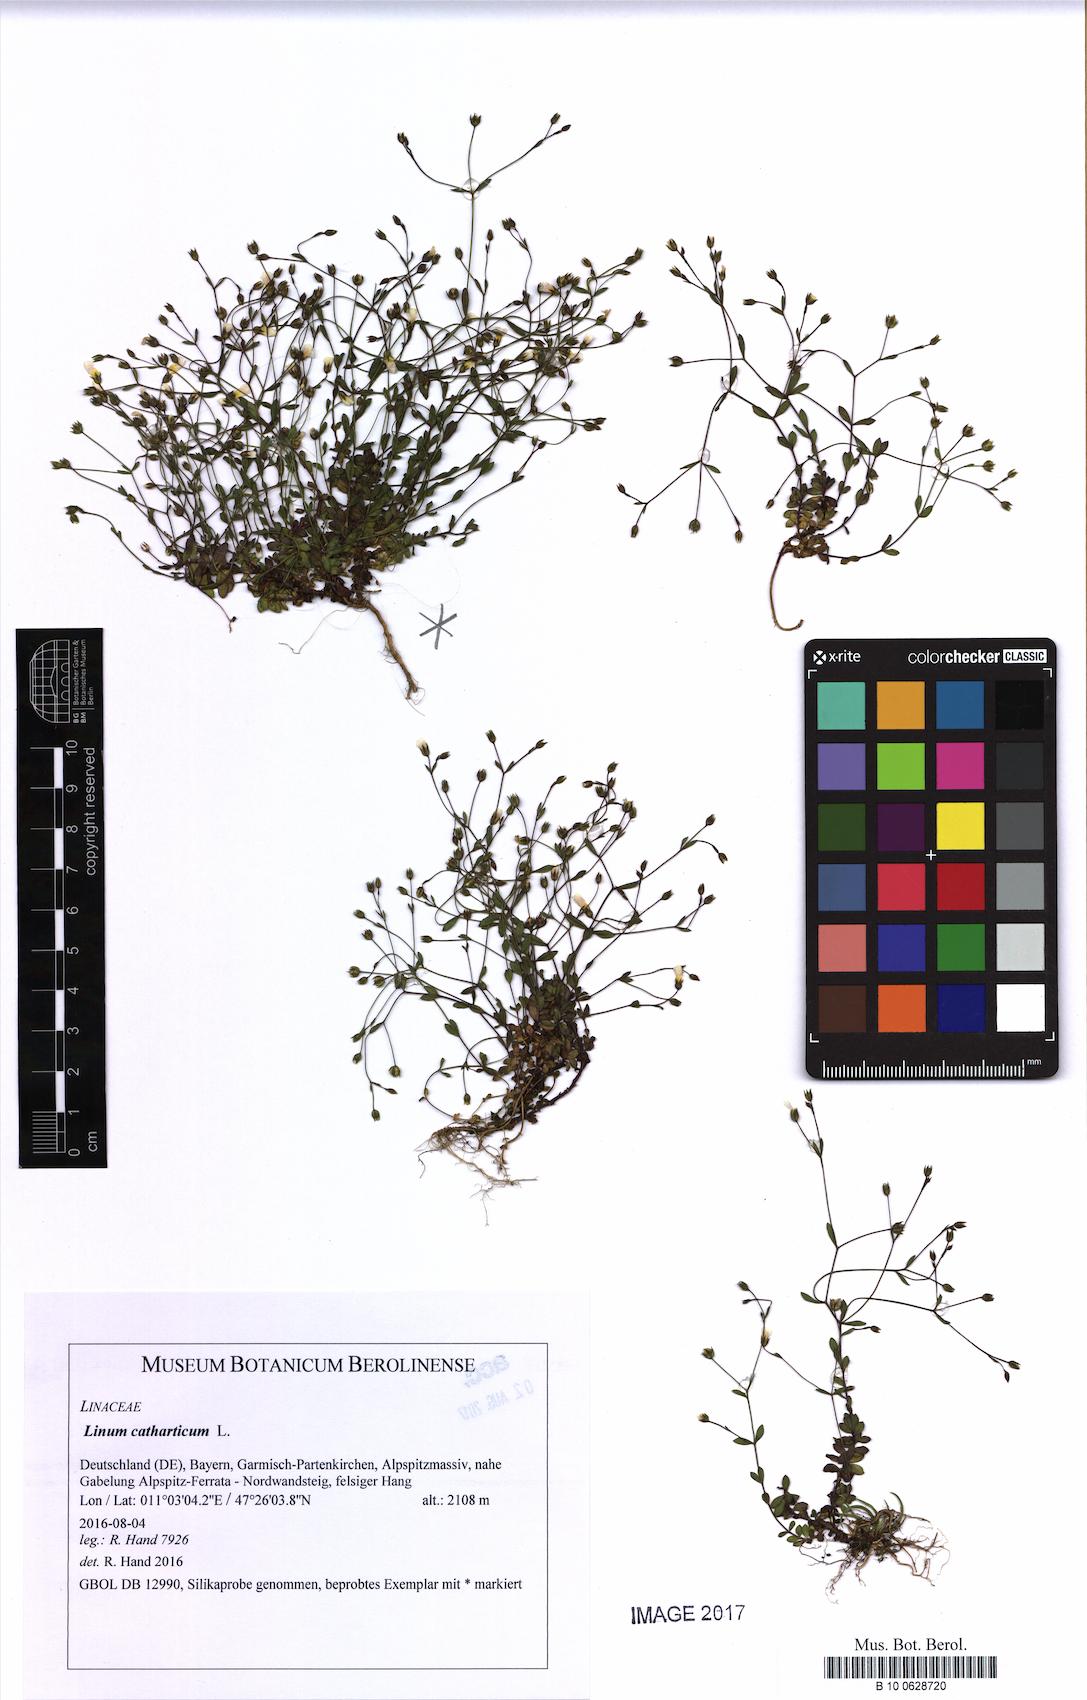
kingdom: Plantae
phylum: Tracheophyta
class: Magnoliopsida
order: Malpighiales
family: Linaceae
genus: Linum
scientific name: Linum catharticum
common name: Fairy flax
